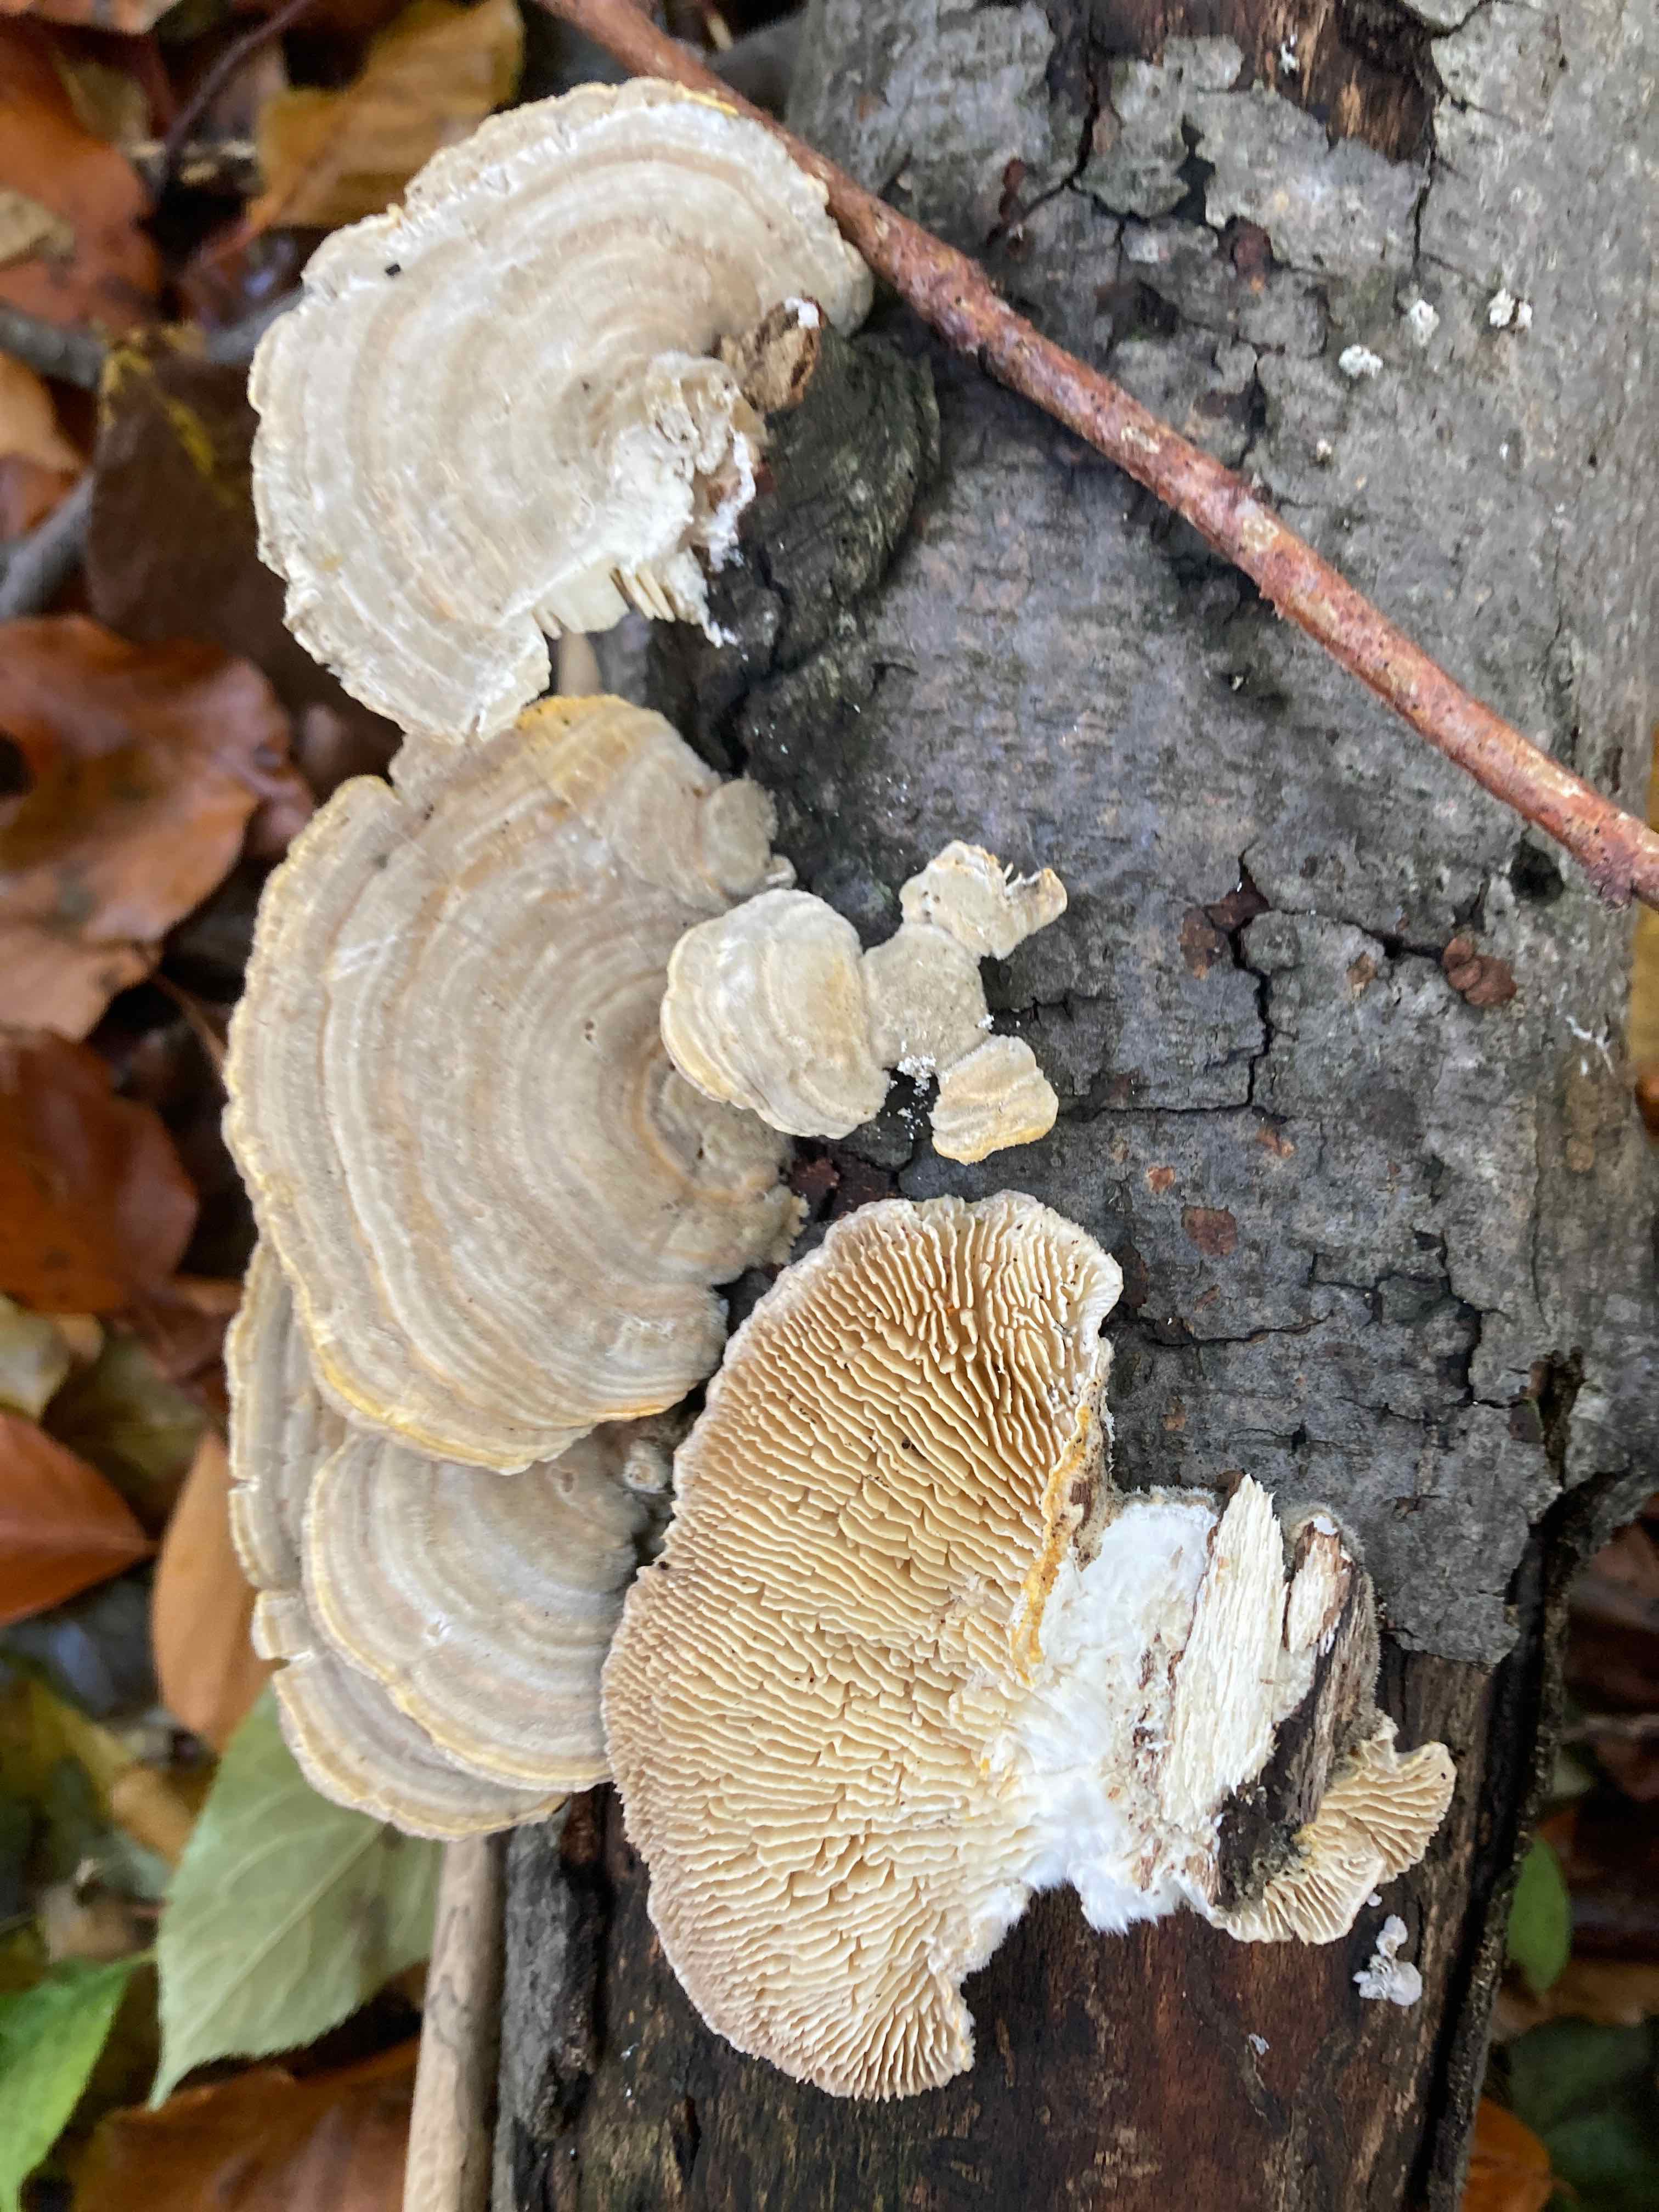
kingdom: Fungi
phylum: Basidiomycota
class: Agaricomycetes
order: Polyporales
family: Polyporaceae
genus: Lenzites
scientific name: Lenzites betulinus
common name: birke-læderporesvamp
